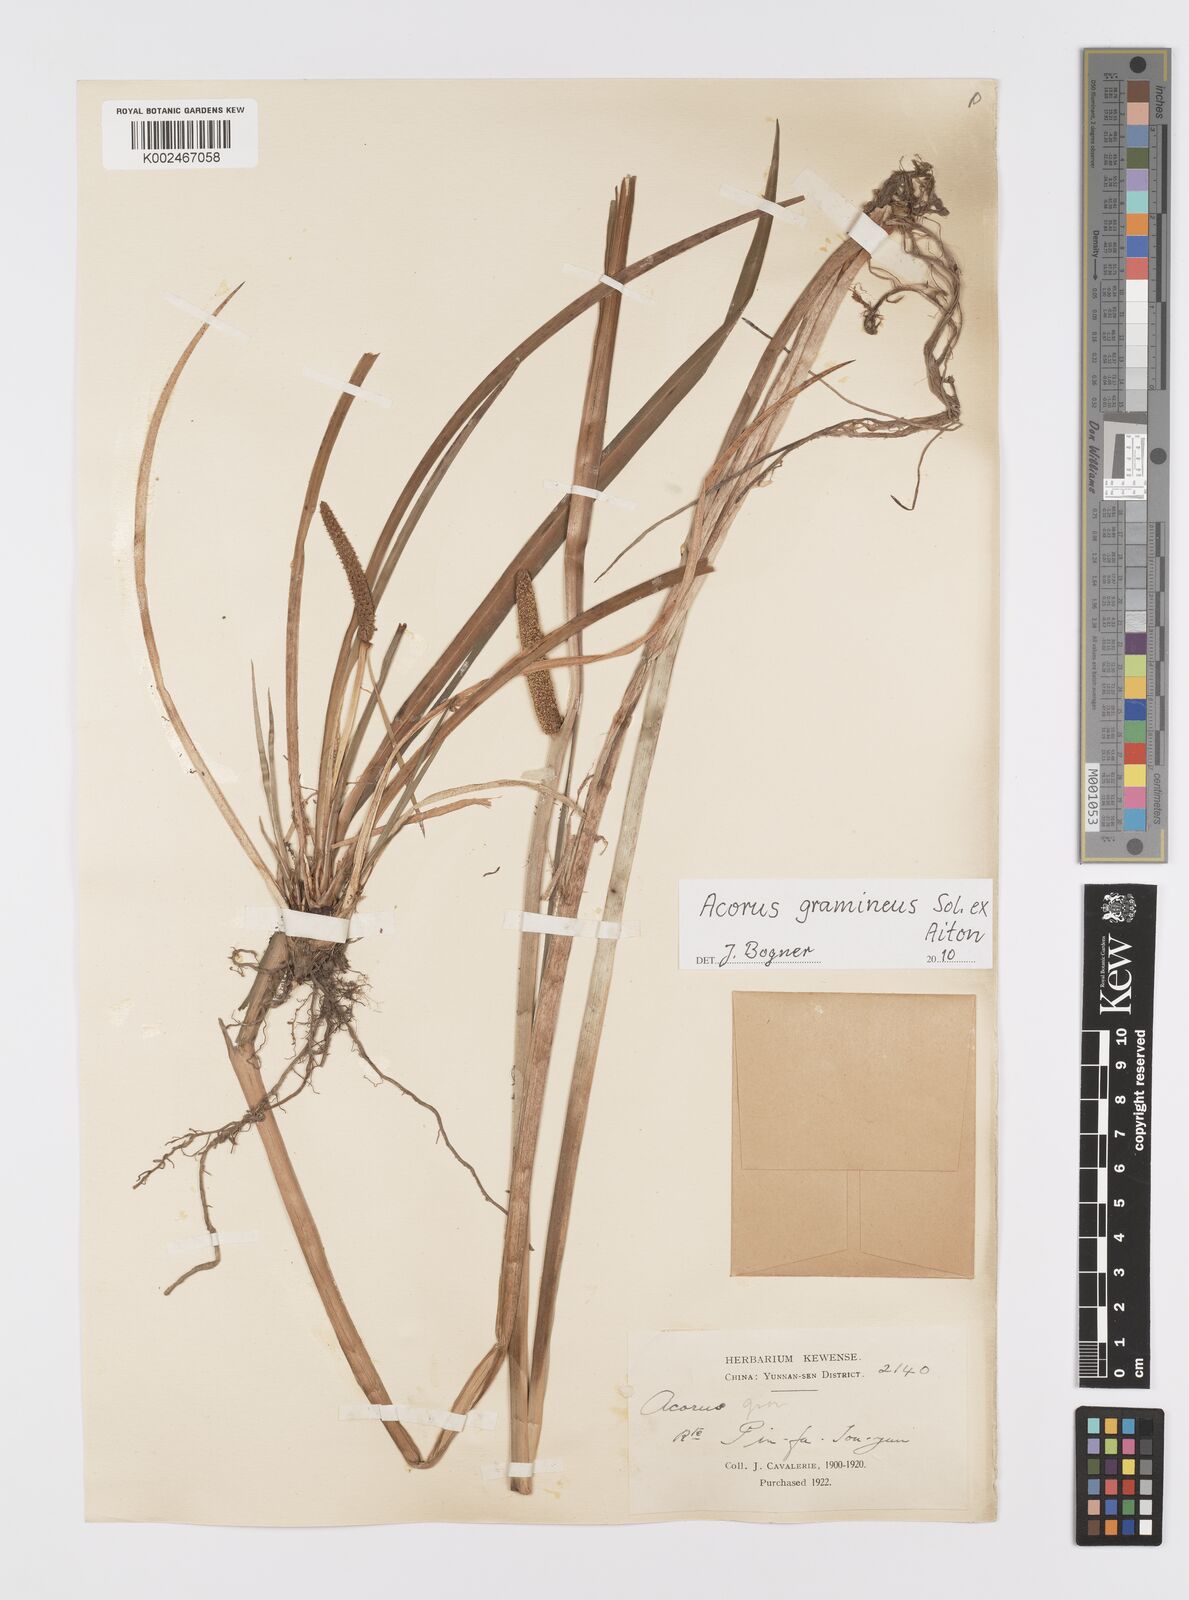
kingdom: Plantae
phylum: Tracheophyta
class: Liliopsida
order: Acorales
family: Acoraceae
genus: Acorus
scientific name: Acorus gramineus
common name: Slender sweet-flag
